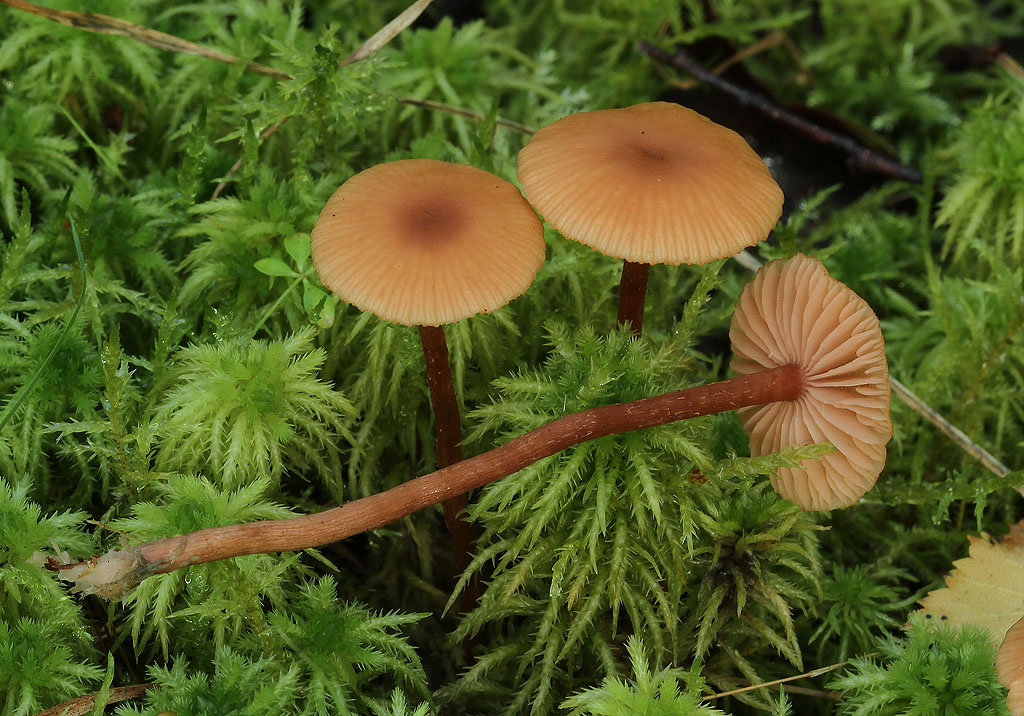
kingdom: Fungi
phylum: Basidiomycota
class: Agaricomycetes
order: Agaricales
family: Hydnangiaceae
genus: Laccaria
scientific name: Laccaria laccata
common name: rød ametysthat
